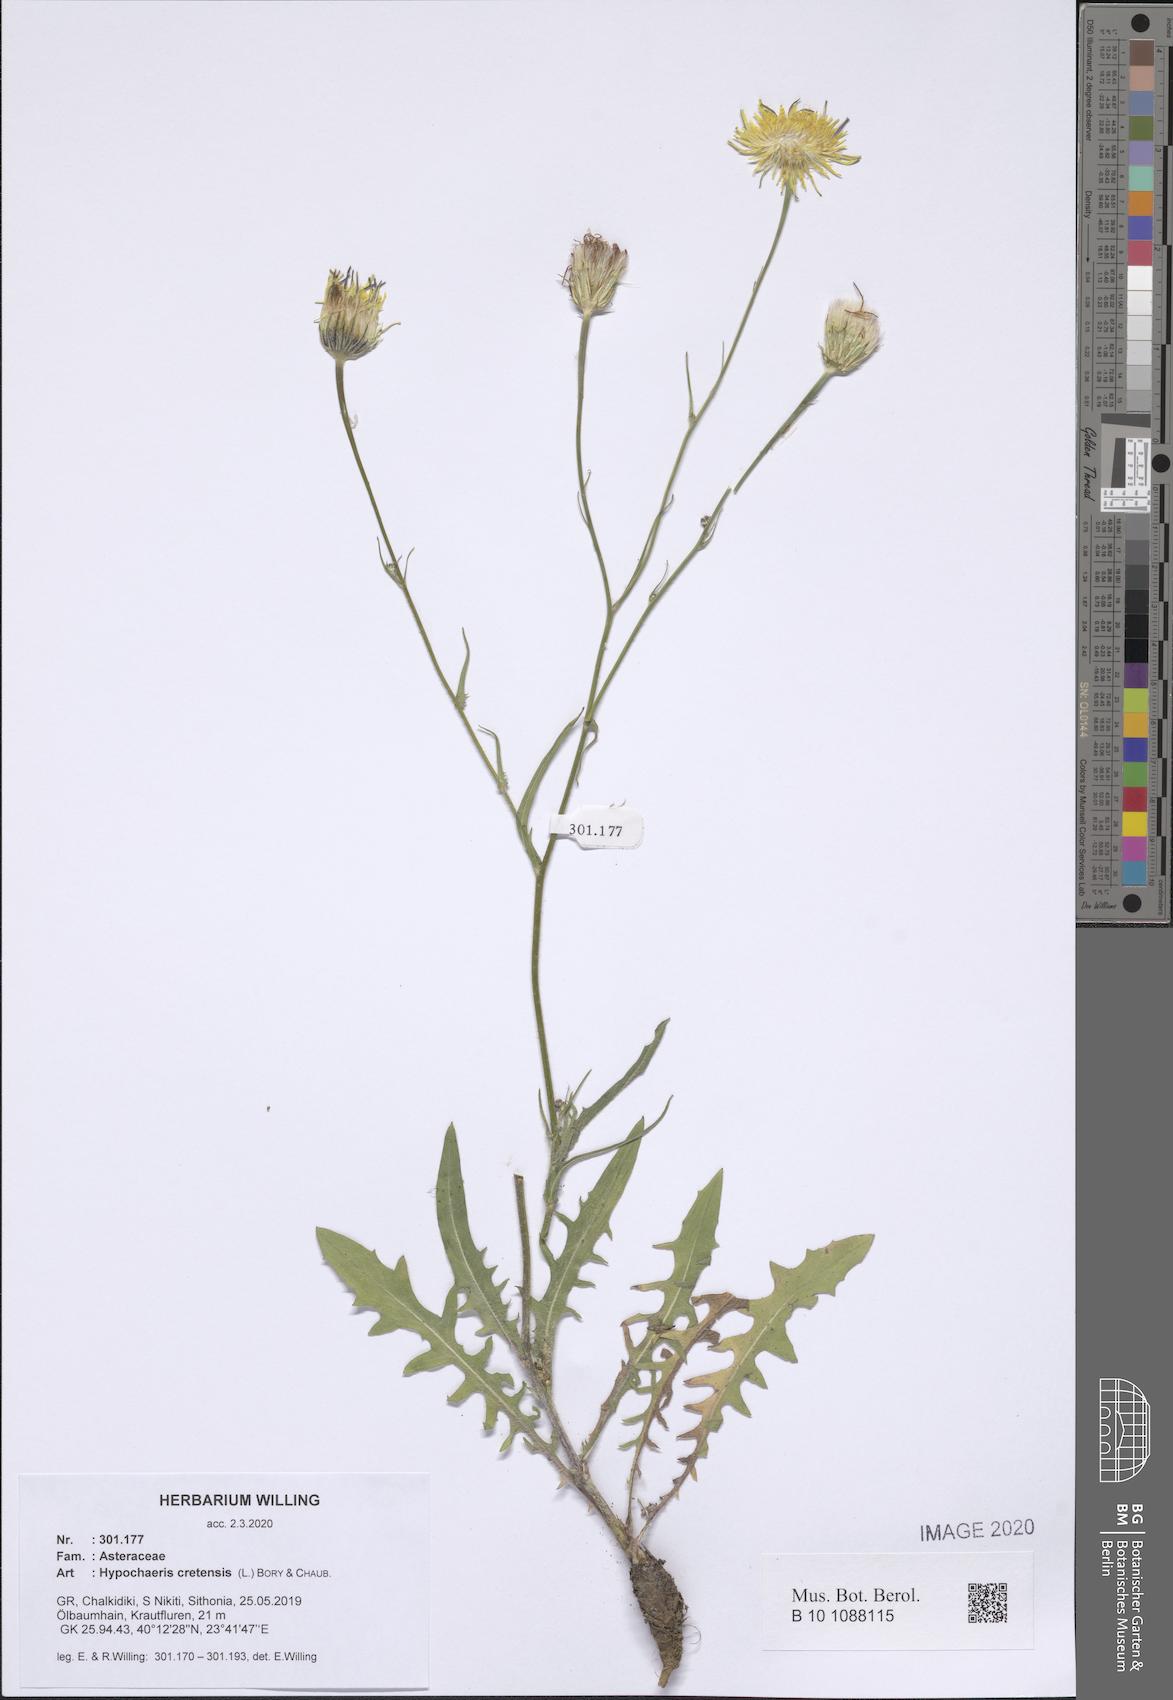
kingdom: Plantae
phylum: Tracheophyta
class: Magnoliopsida
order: Asterales
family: Asteraceae
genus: Hypochaeris
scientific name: Hypochaeris cretensis
